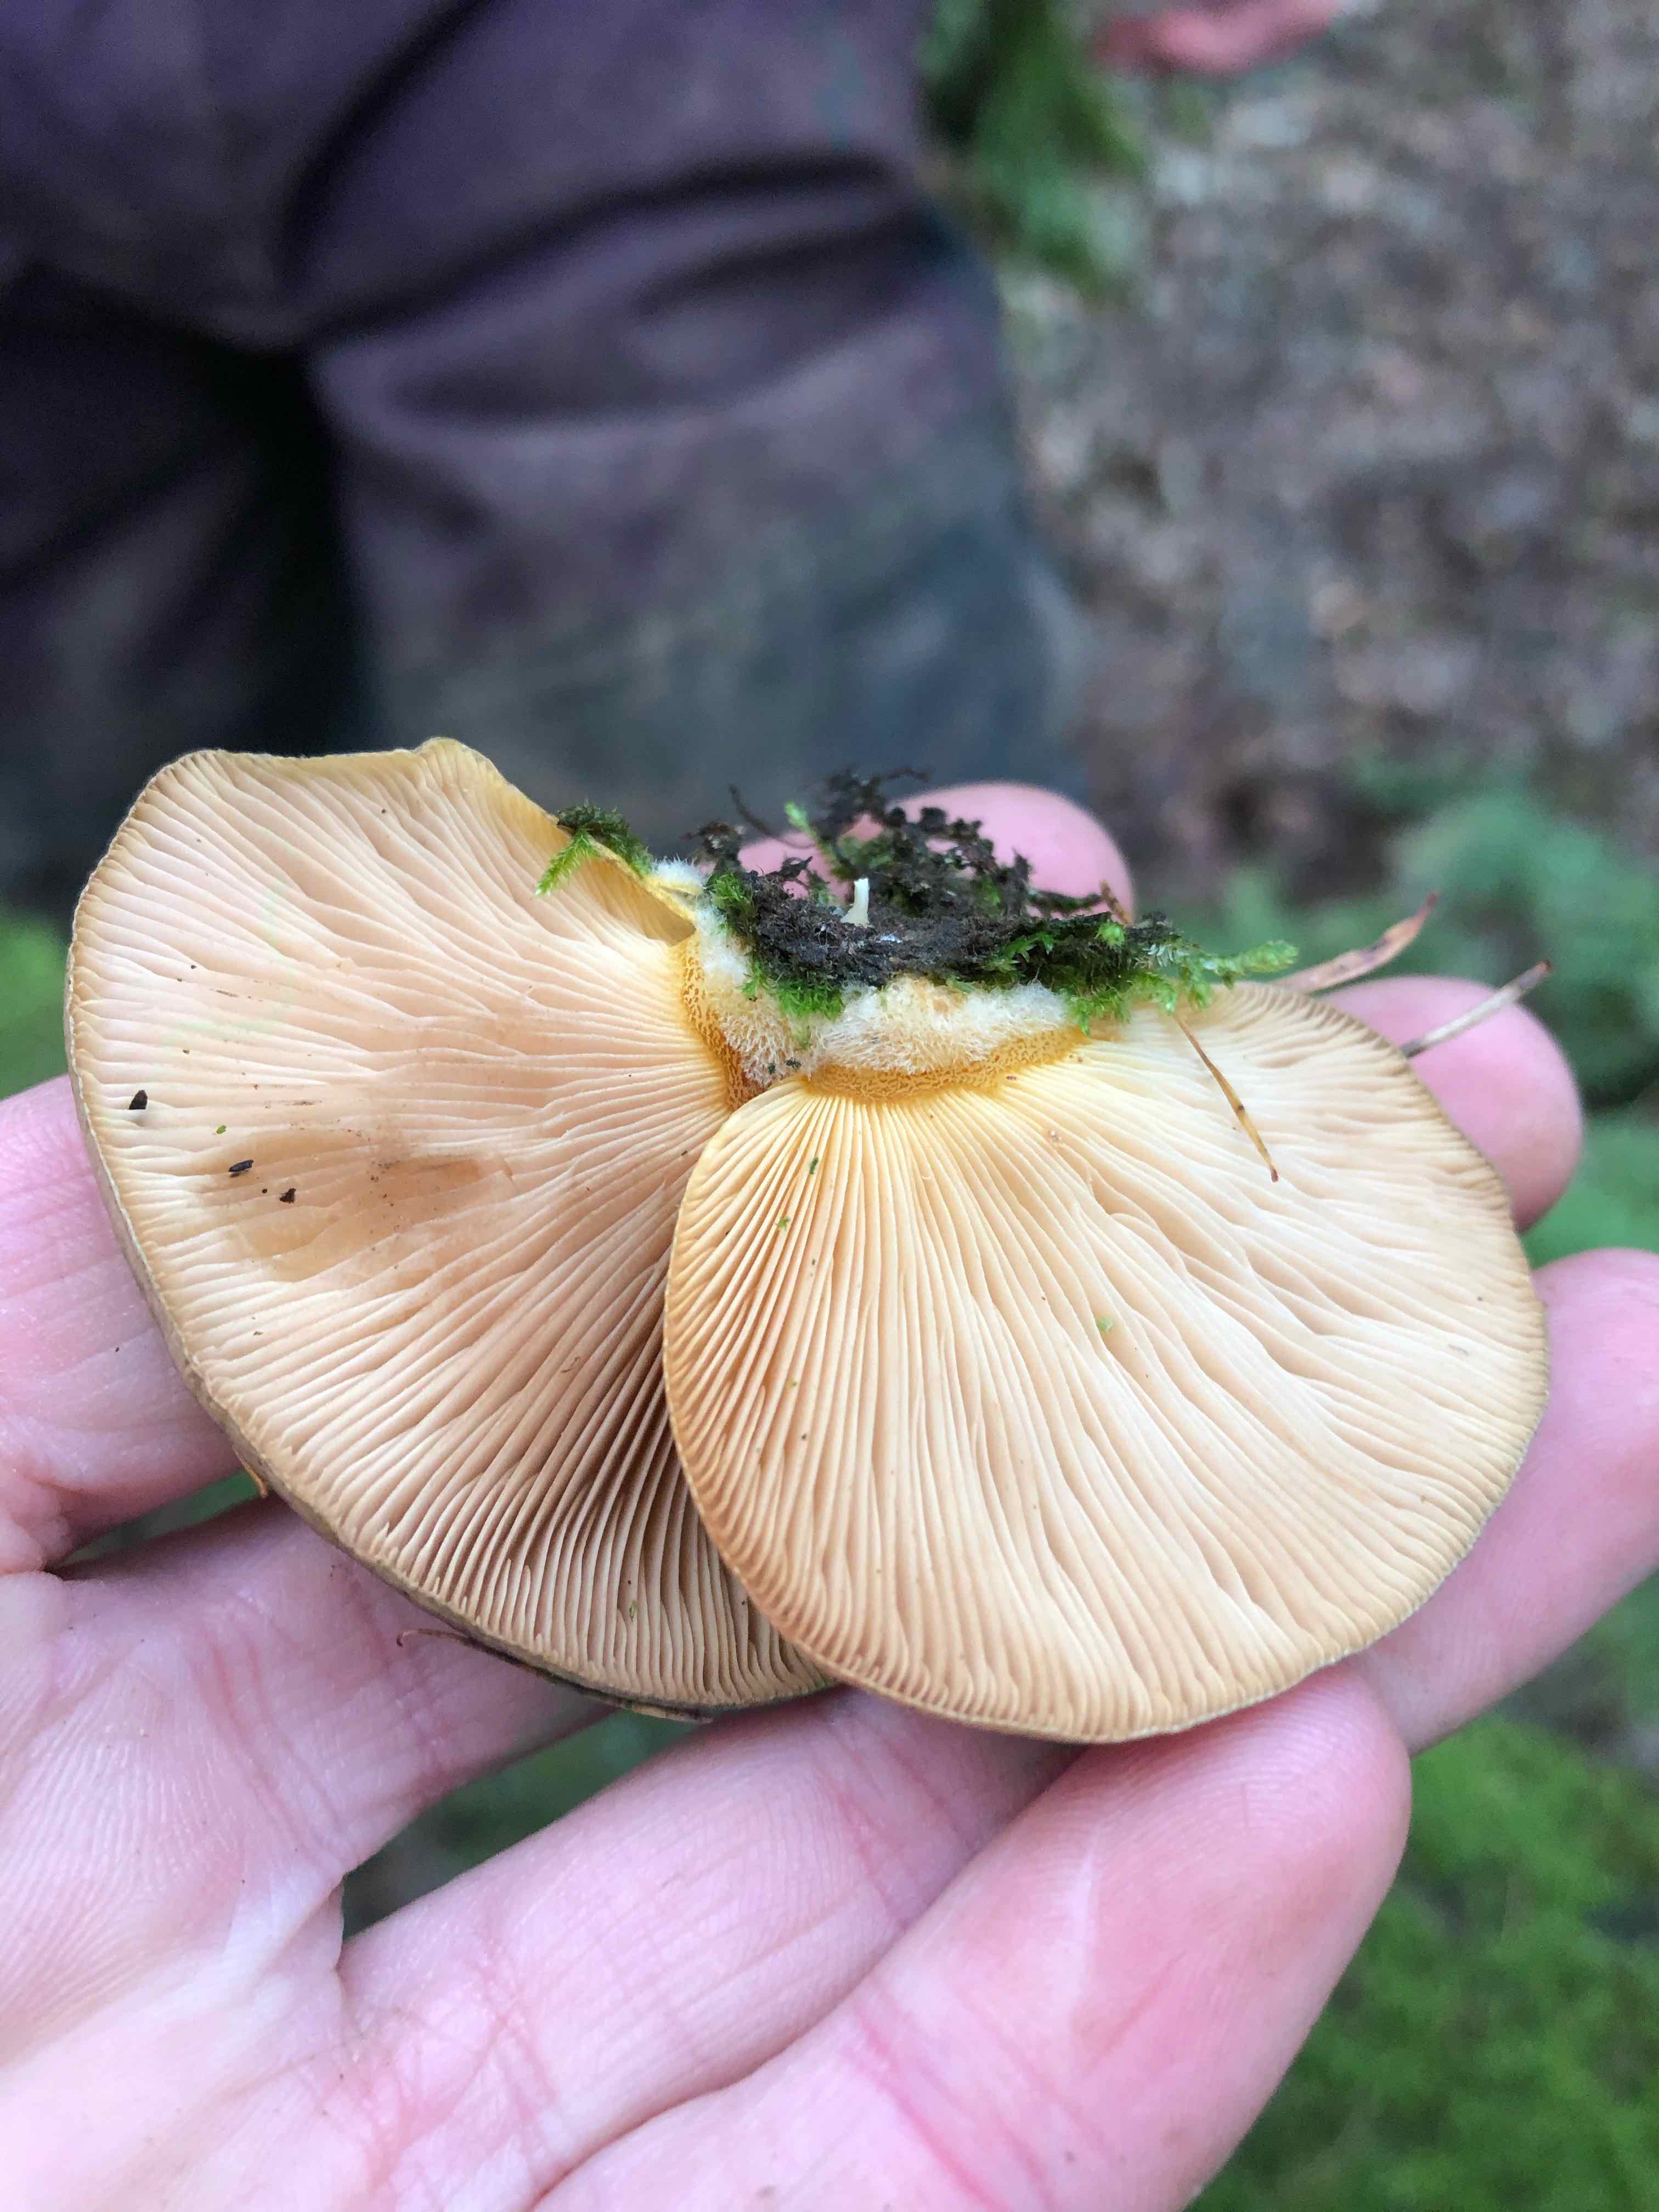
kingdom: Fungi
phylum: Basidiomycota
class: Agaricomycetes
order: Agaricales
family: Sarcomyxaceae
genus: Sarcomyxa
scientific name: Sarcomyxa serotina
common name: gummihat
